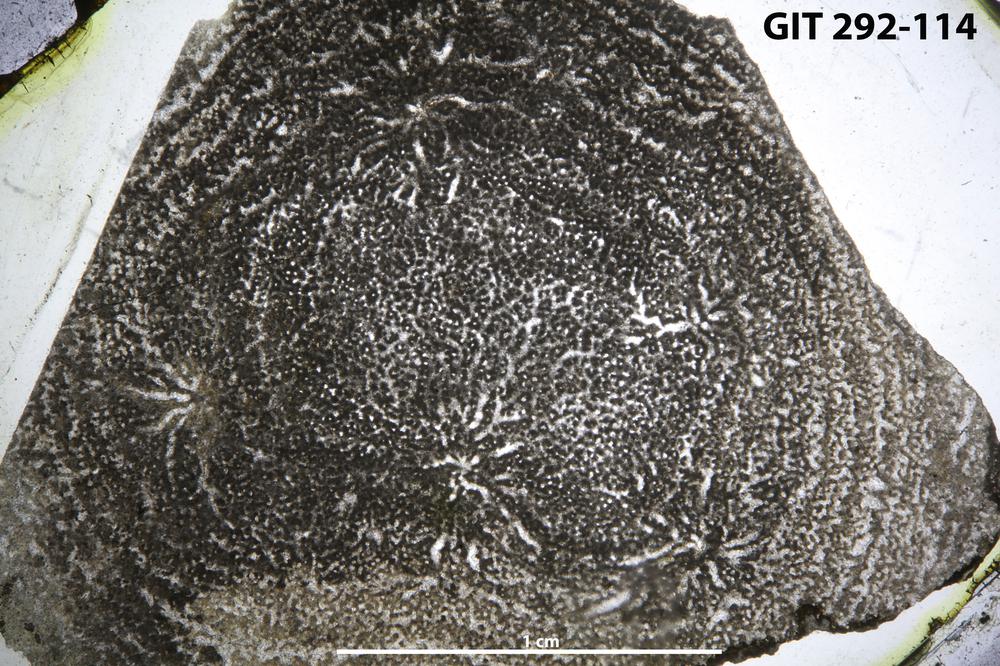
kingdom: Animalia
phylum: Porifera
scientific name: Porifera
